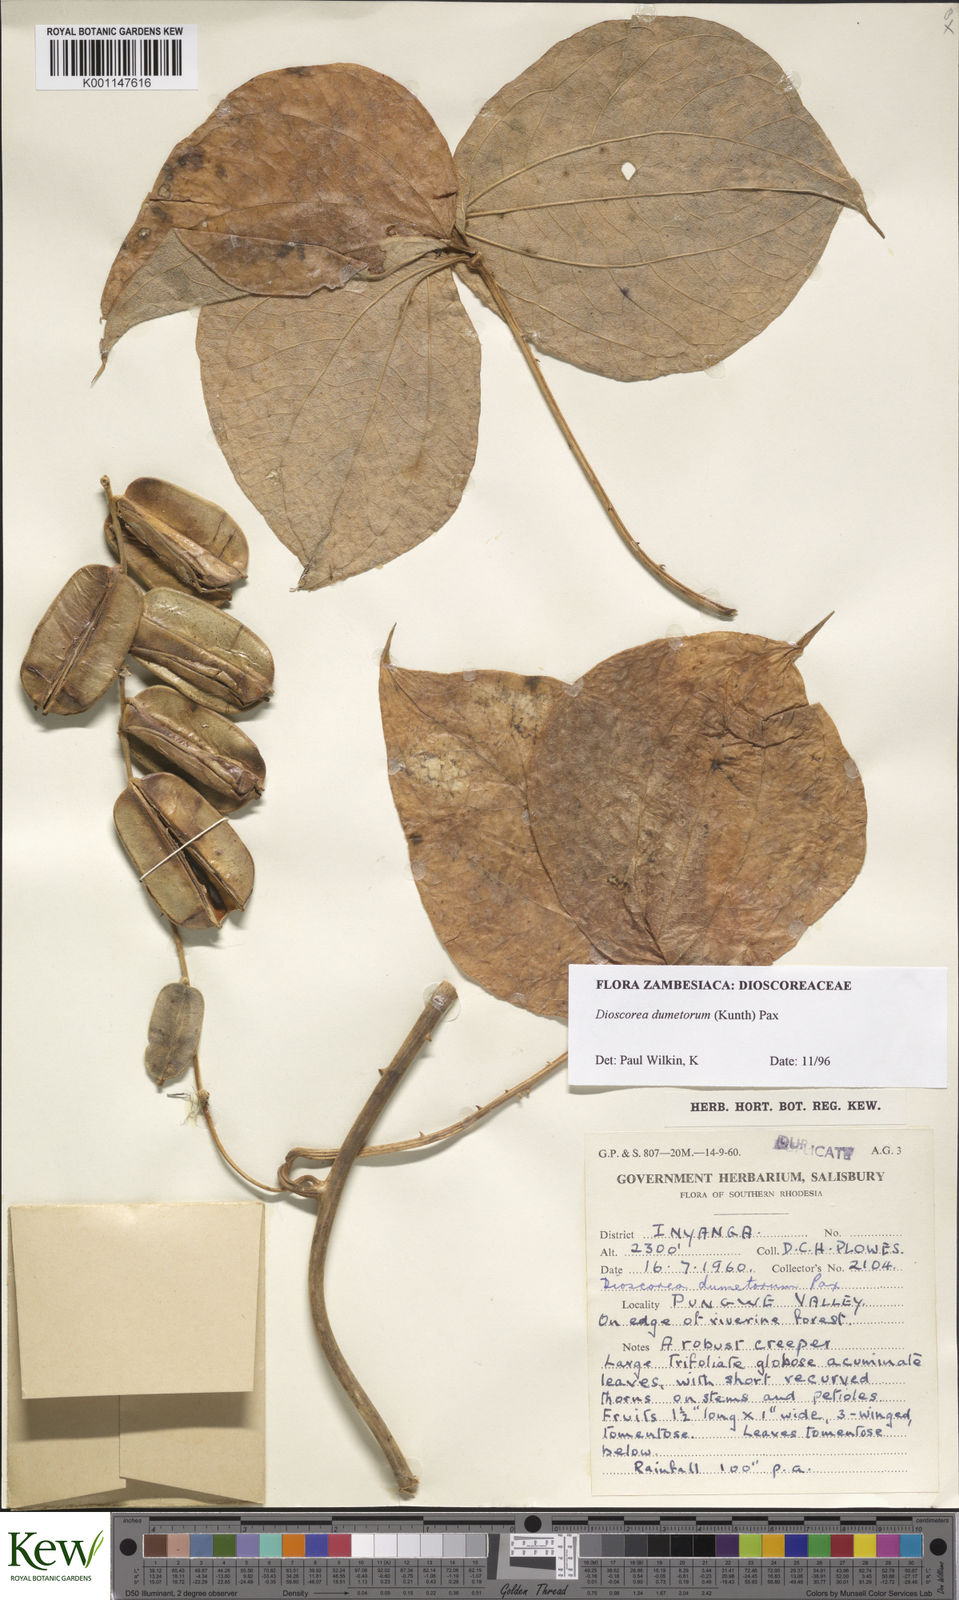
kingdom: Plantae
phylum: Tracheophyta
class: Liliopsida
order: Dioscoreales
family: Dioscoreaceae
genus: Dioscorea
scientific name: Dioscorea dumetorum
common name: African bitter yam
